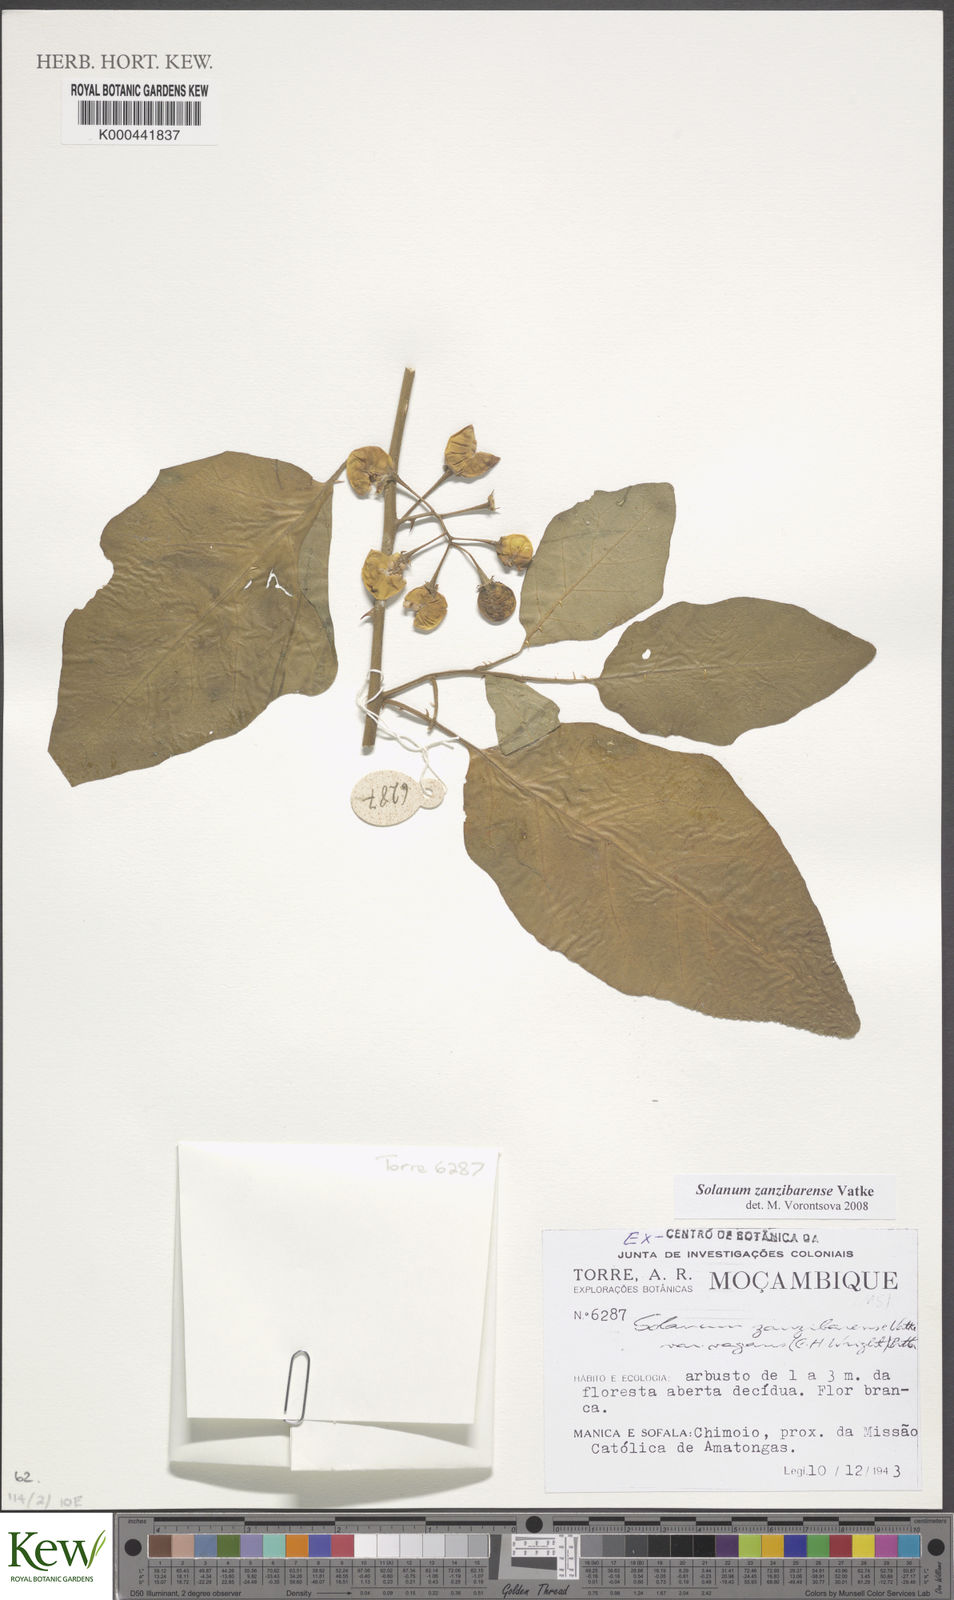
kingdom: Plantae
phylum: Tracheophyta
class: Magnoliopsida
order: Solanales
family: Solanaceae
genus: Solanum
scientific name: Solanum zanzibarense
